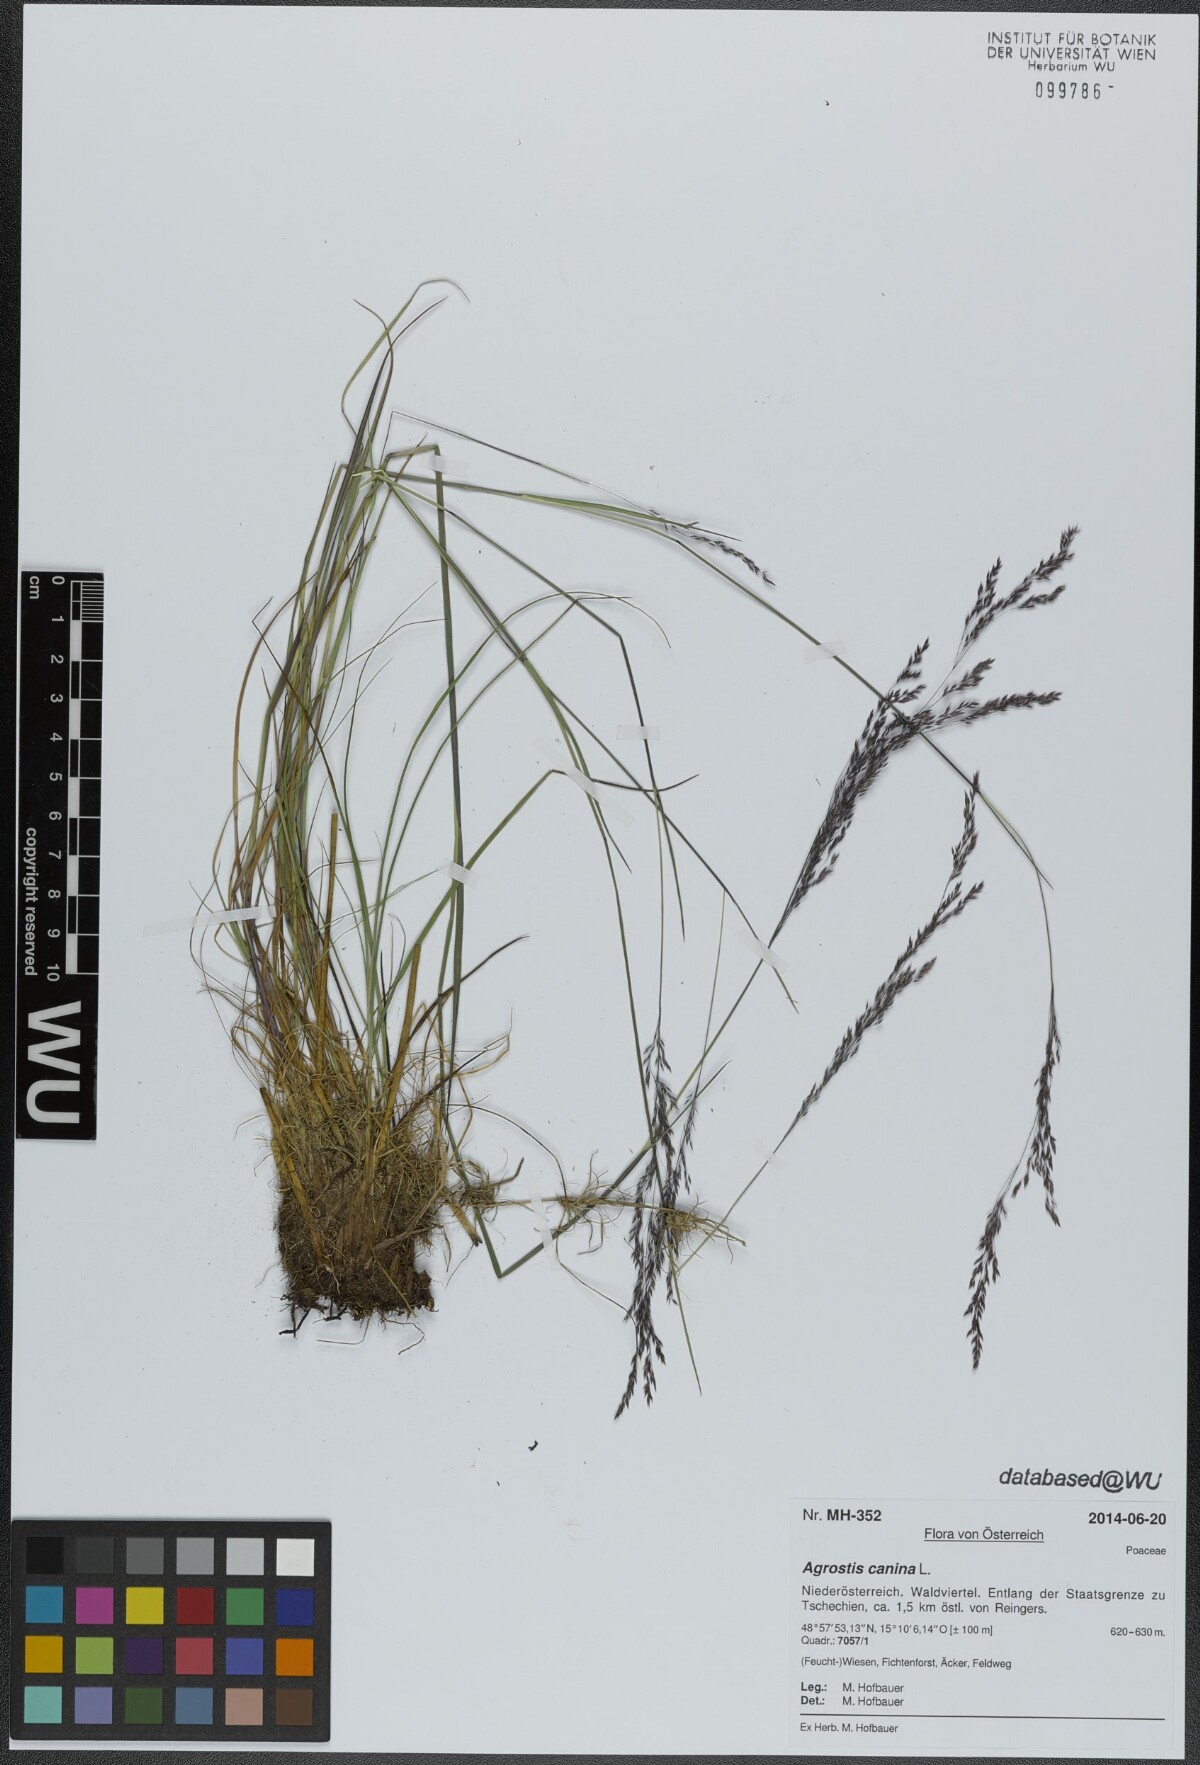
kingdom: Plantae
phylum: Tracheophyta
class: Liliopsida
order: Poales
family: Poaceae
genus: Agrostis
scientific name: Agrostis canina
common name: Velvet bent
